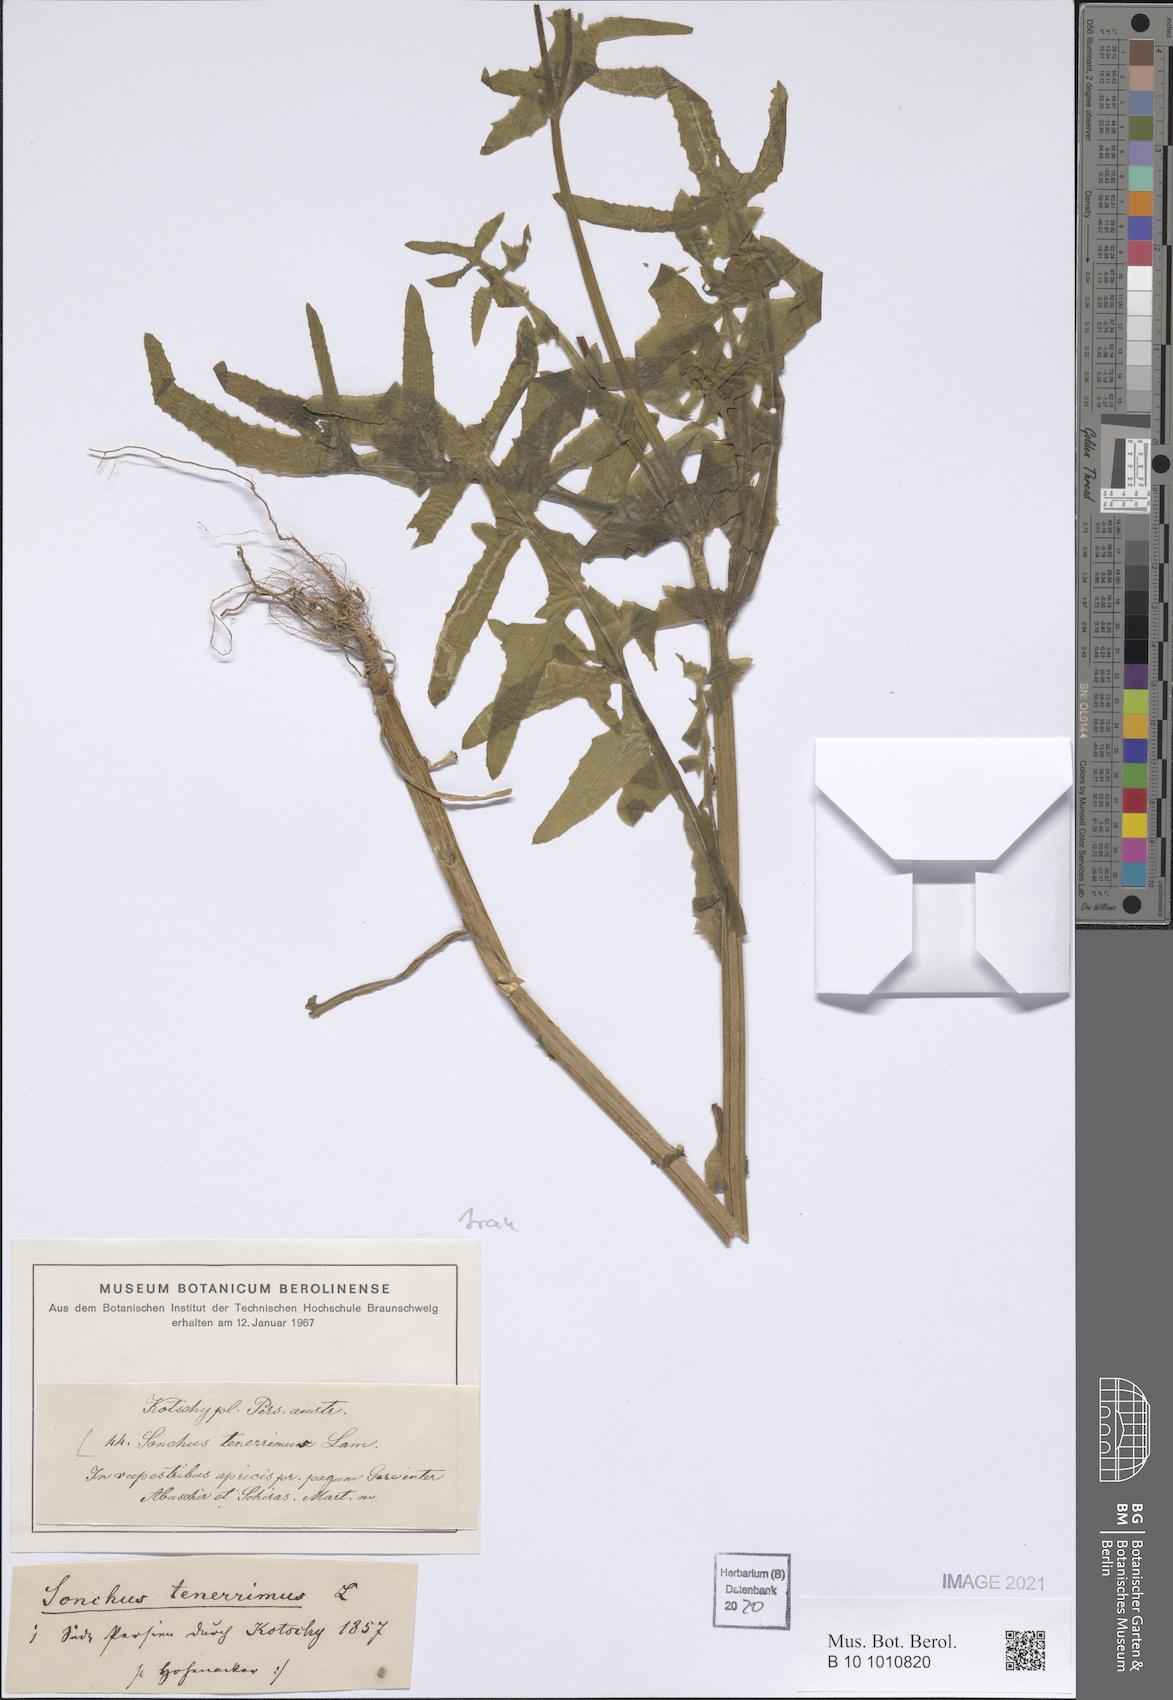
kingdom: Plantae
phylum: Tracheophyta
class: Magnoliopsida
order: Asterales
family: Asteraceae
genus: Sonchus
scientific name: Sonchus tenerrimus
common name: Clammy sowthistle
